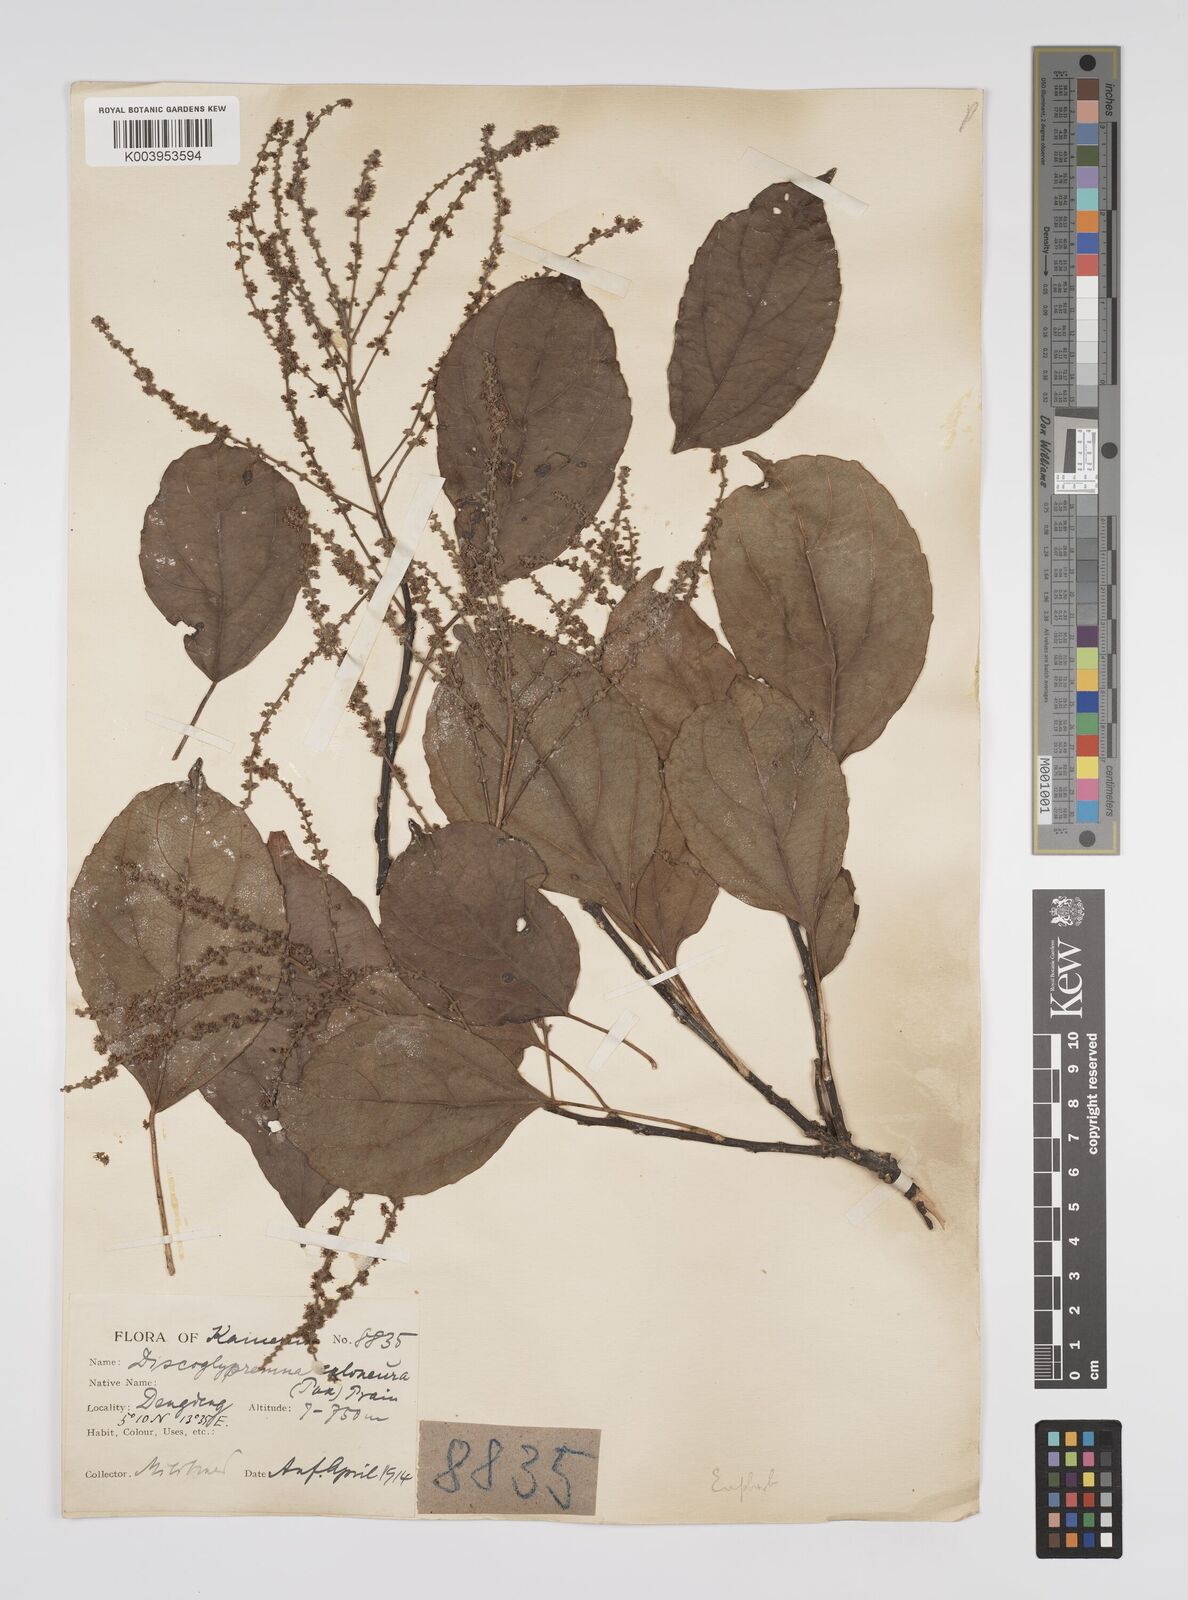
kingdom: Plantae
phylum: Tracheophyta
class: Magnoliopsida
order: Malpighiales
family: Euphorbiaceae
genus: Discoglypremna
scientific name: Discoglypremna caloneura
